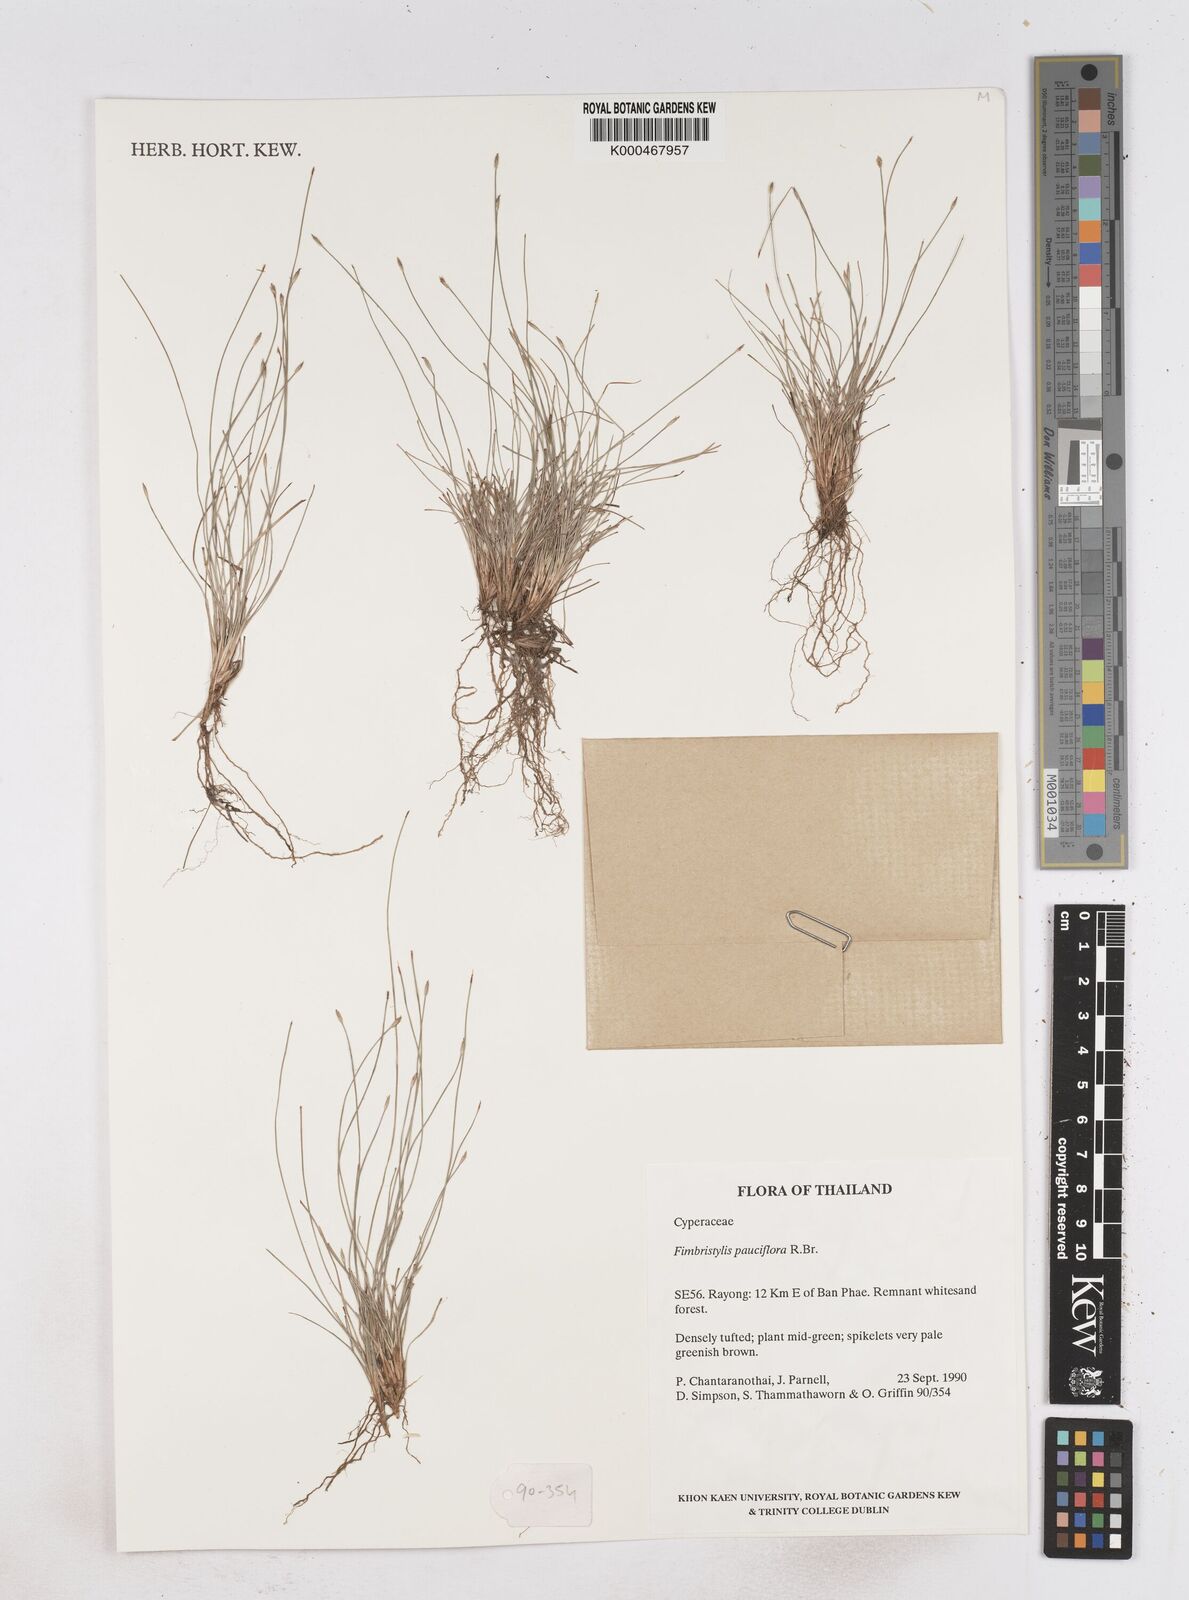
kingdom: Plantae
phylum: Tracheophyta
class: Liliopsida
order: Poales
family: Cyperaceae
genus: Fimbristylis
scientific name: Fimbristylis pauciflora
